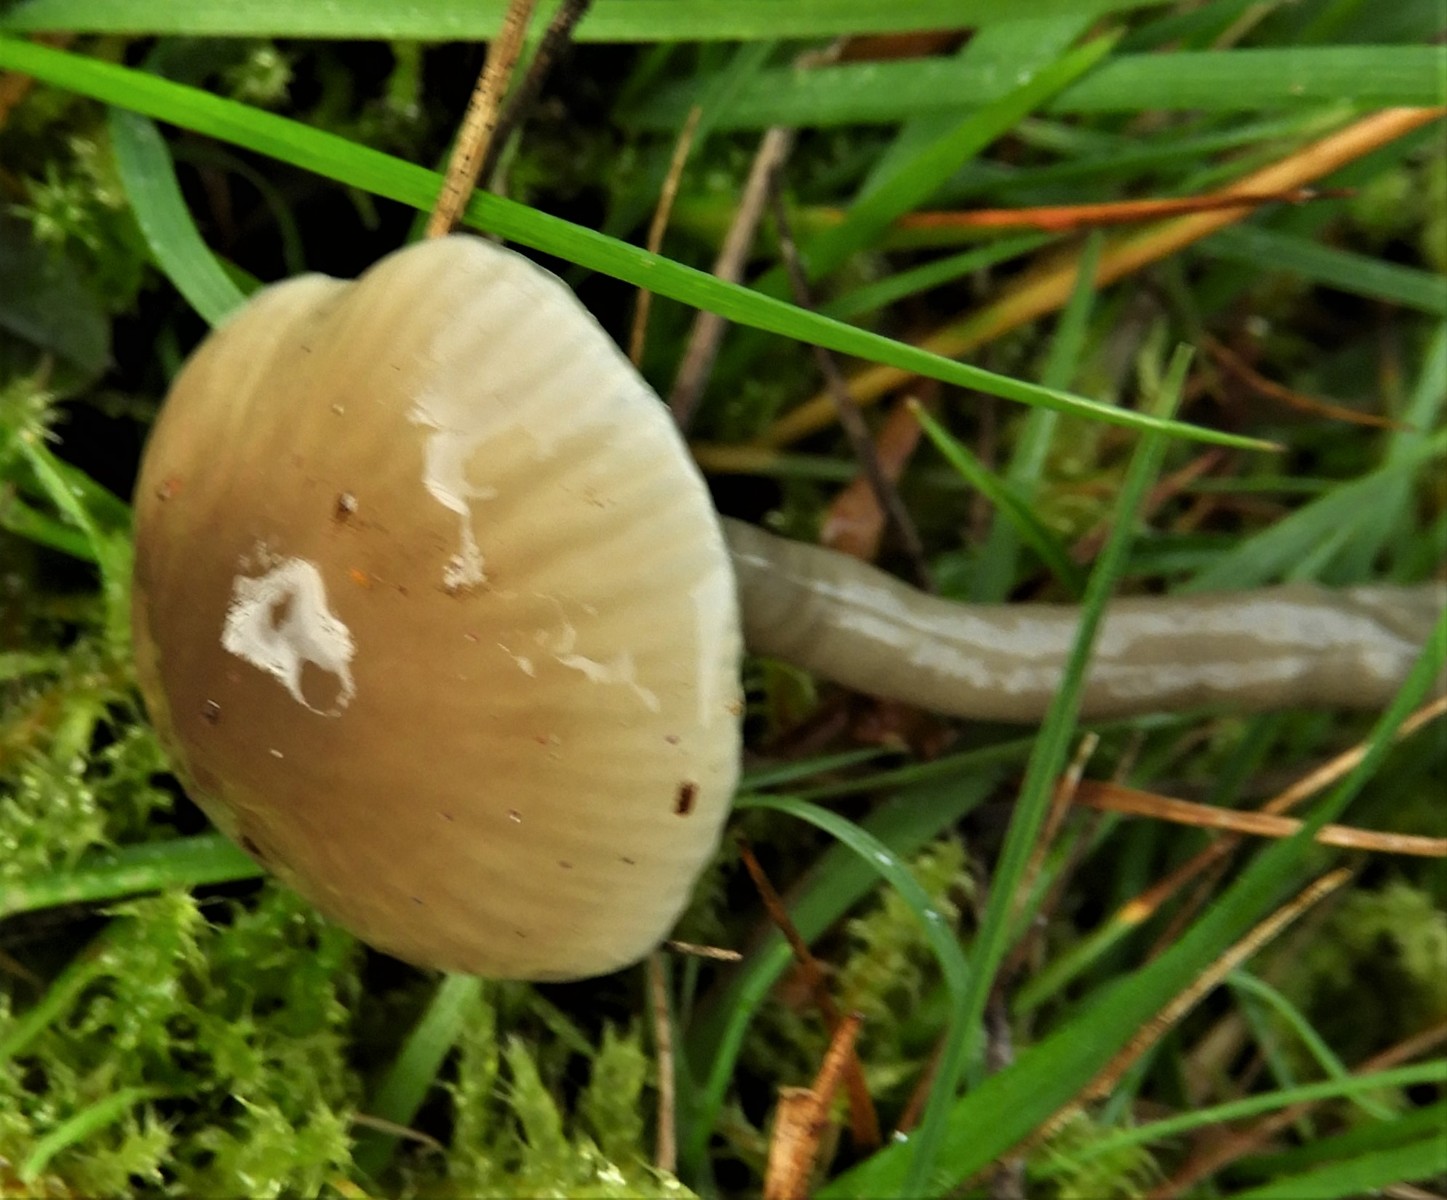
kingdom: Fungi
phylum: Basidiomycota
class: Agaricomycetes
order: Agaricales
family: Hygrophoraceae
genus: Gliophorus
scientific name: Gliophorus irrigatus
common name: slimet vokshat
